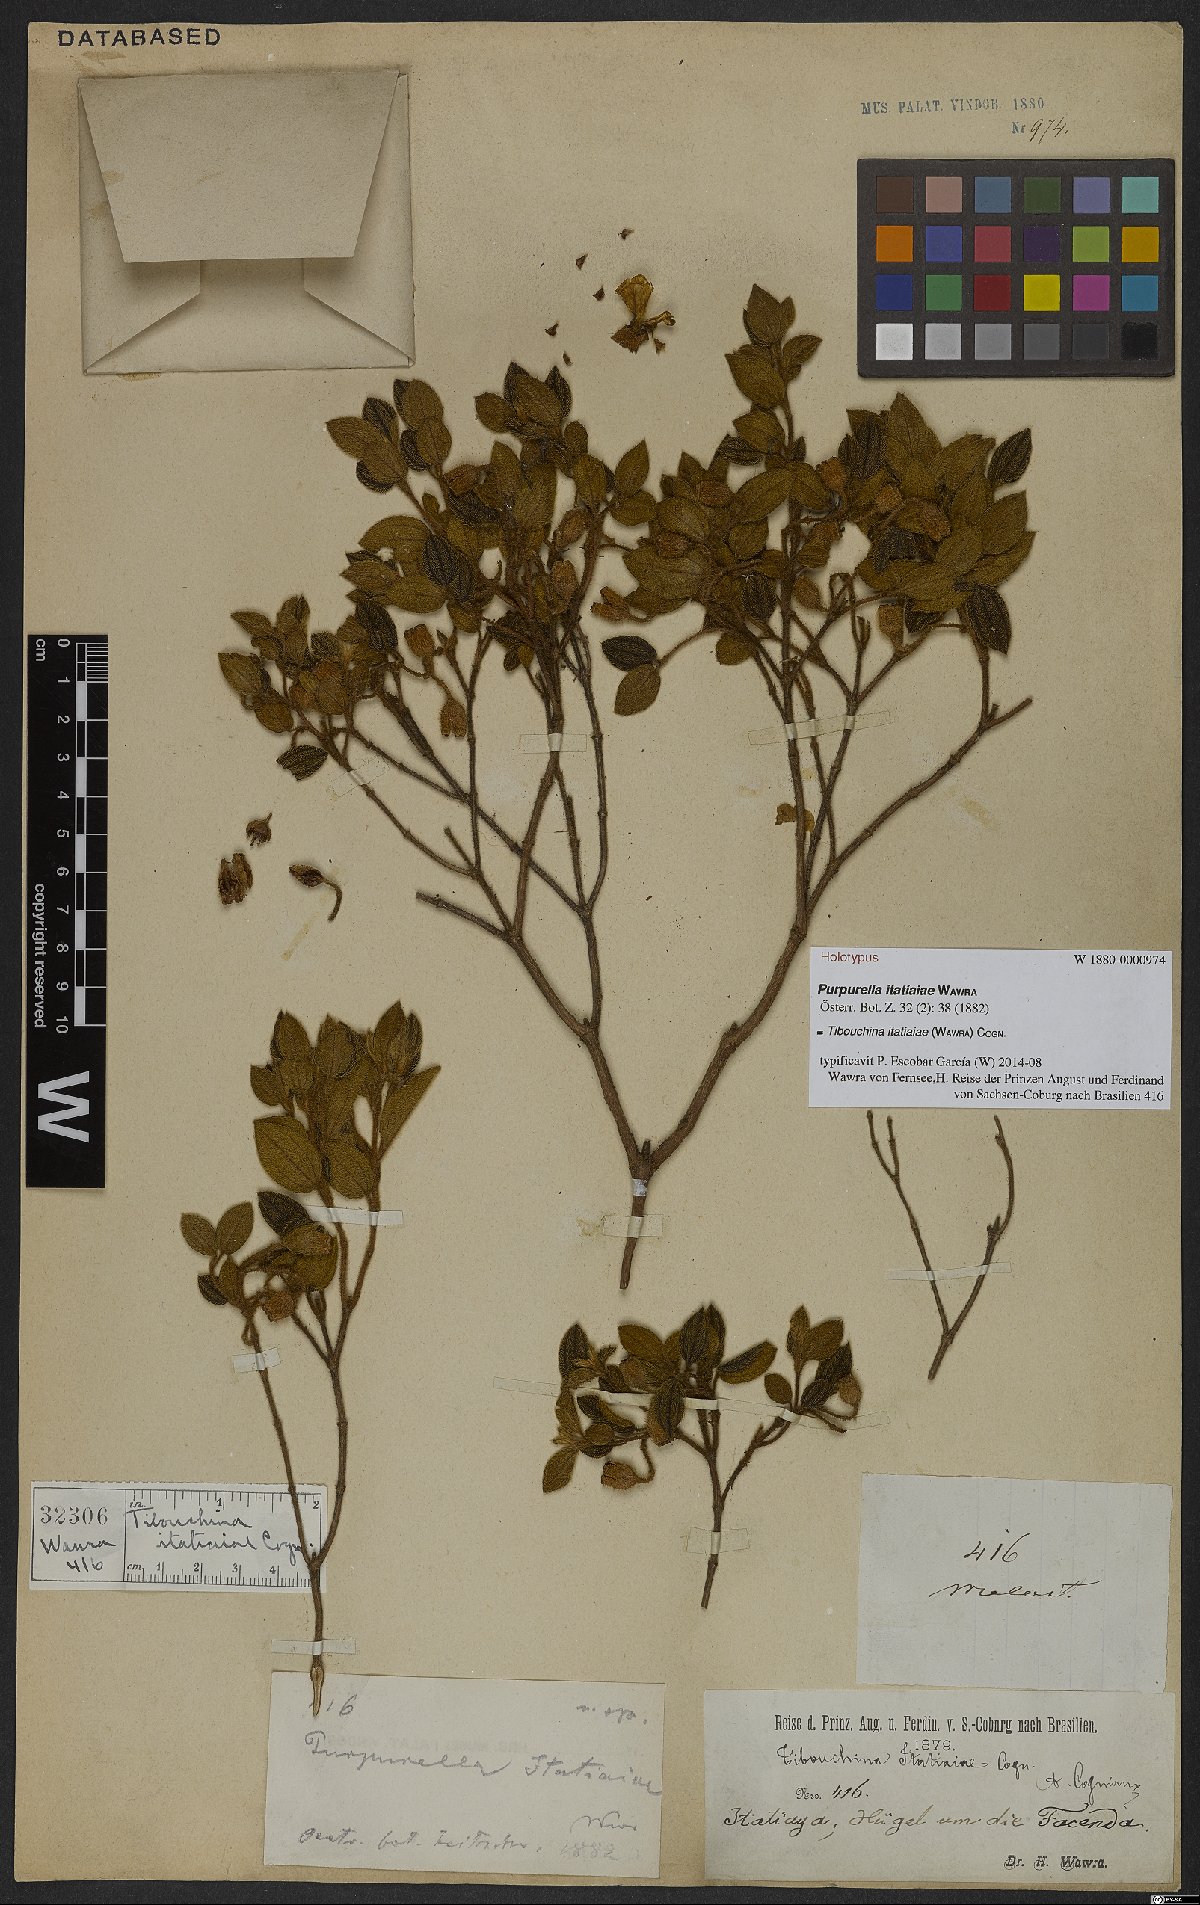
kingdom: Plantae
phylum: Tracheophyta
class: Magnoliopsida
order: Myrtales
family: Melastomataceae
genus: Pleroma
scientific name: Pleroma itatiaiae
